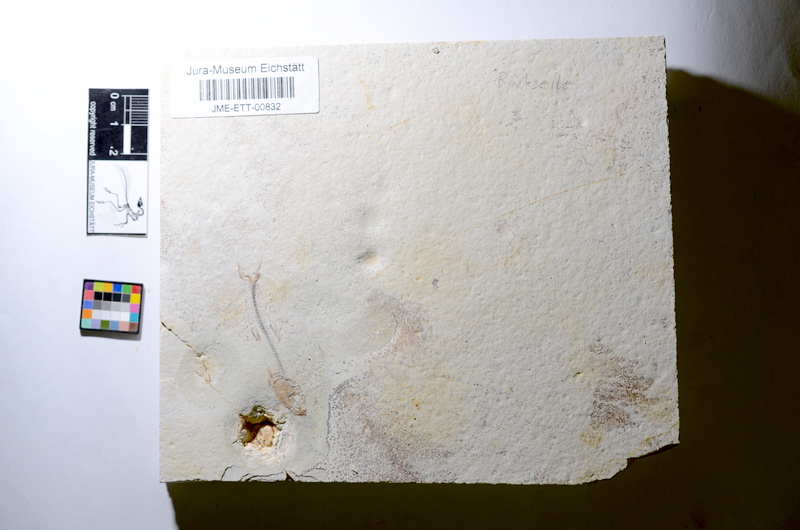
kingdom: Animalia
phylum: Chordata
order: Salmoniformes
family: Orthogonikleithridae
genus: Orthogonikleithrus
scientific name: Orthogonikleithrus hoelli
